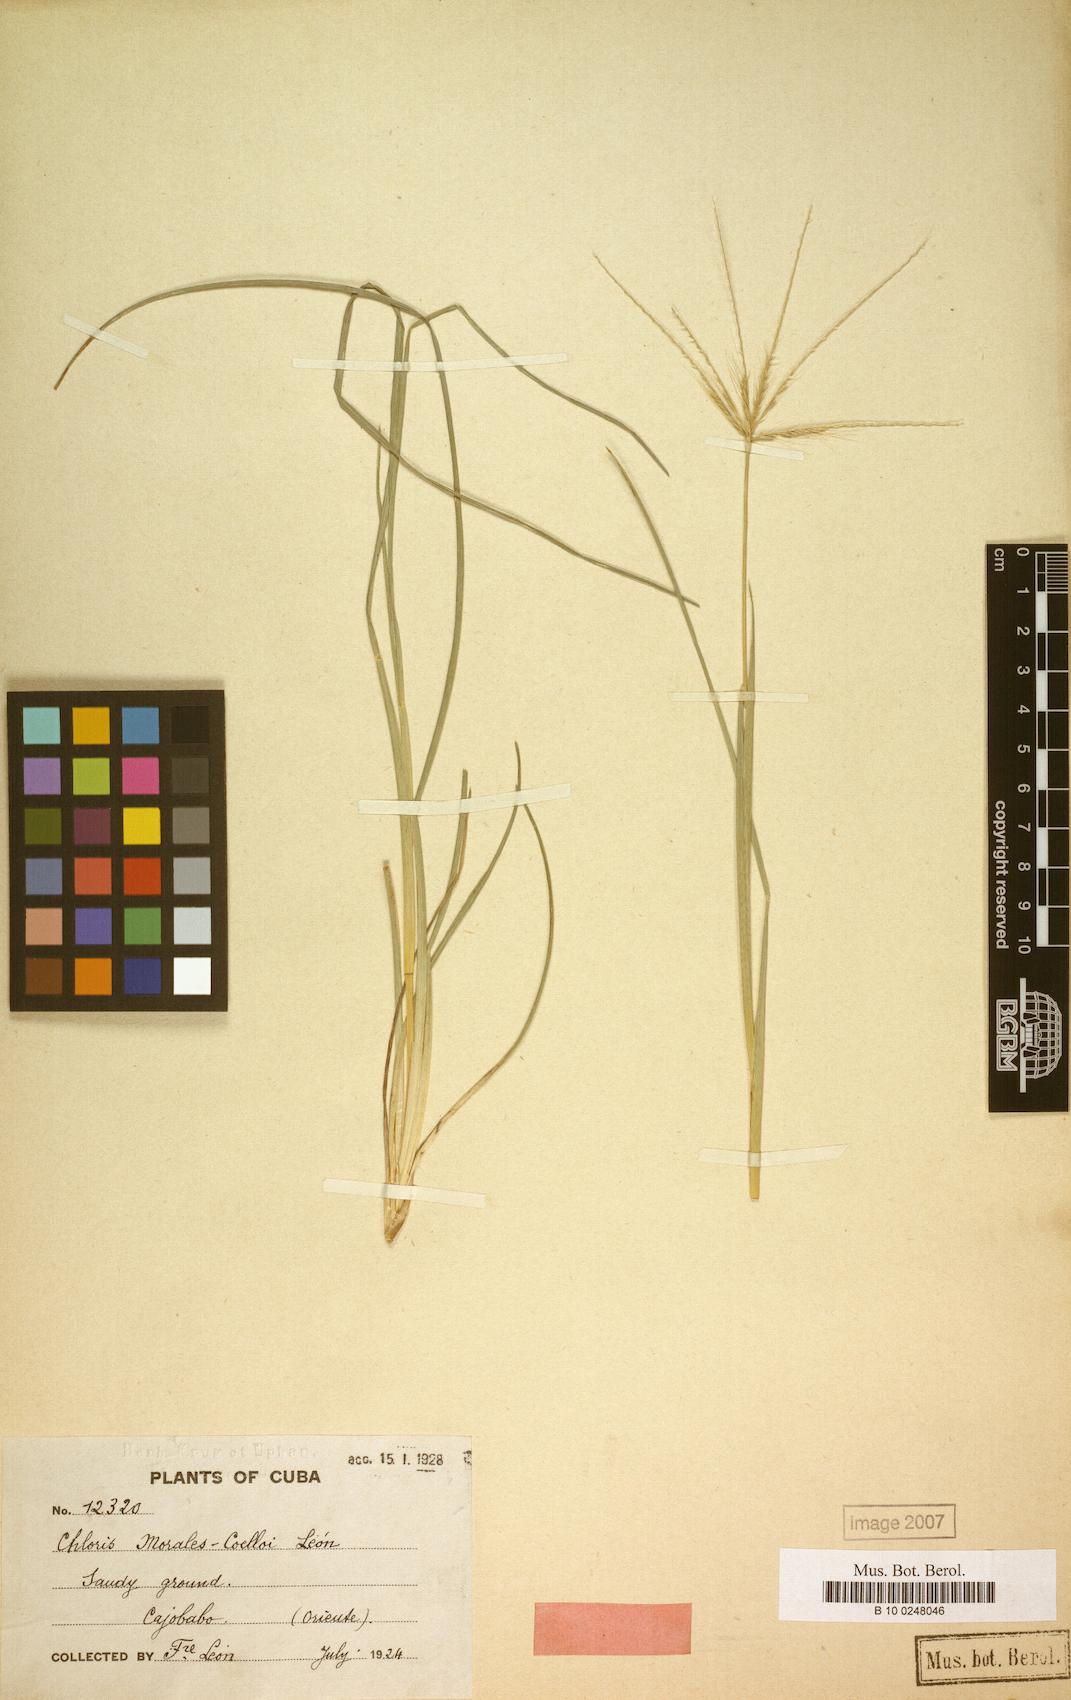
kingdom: Plantae
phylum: Tracheophyta
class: Liliopsida
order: Poales
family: Poaceae
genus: Chloris
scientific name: Chloris sagraeana
